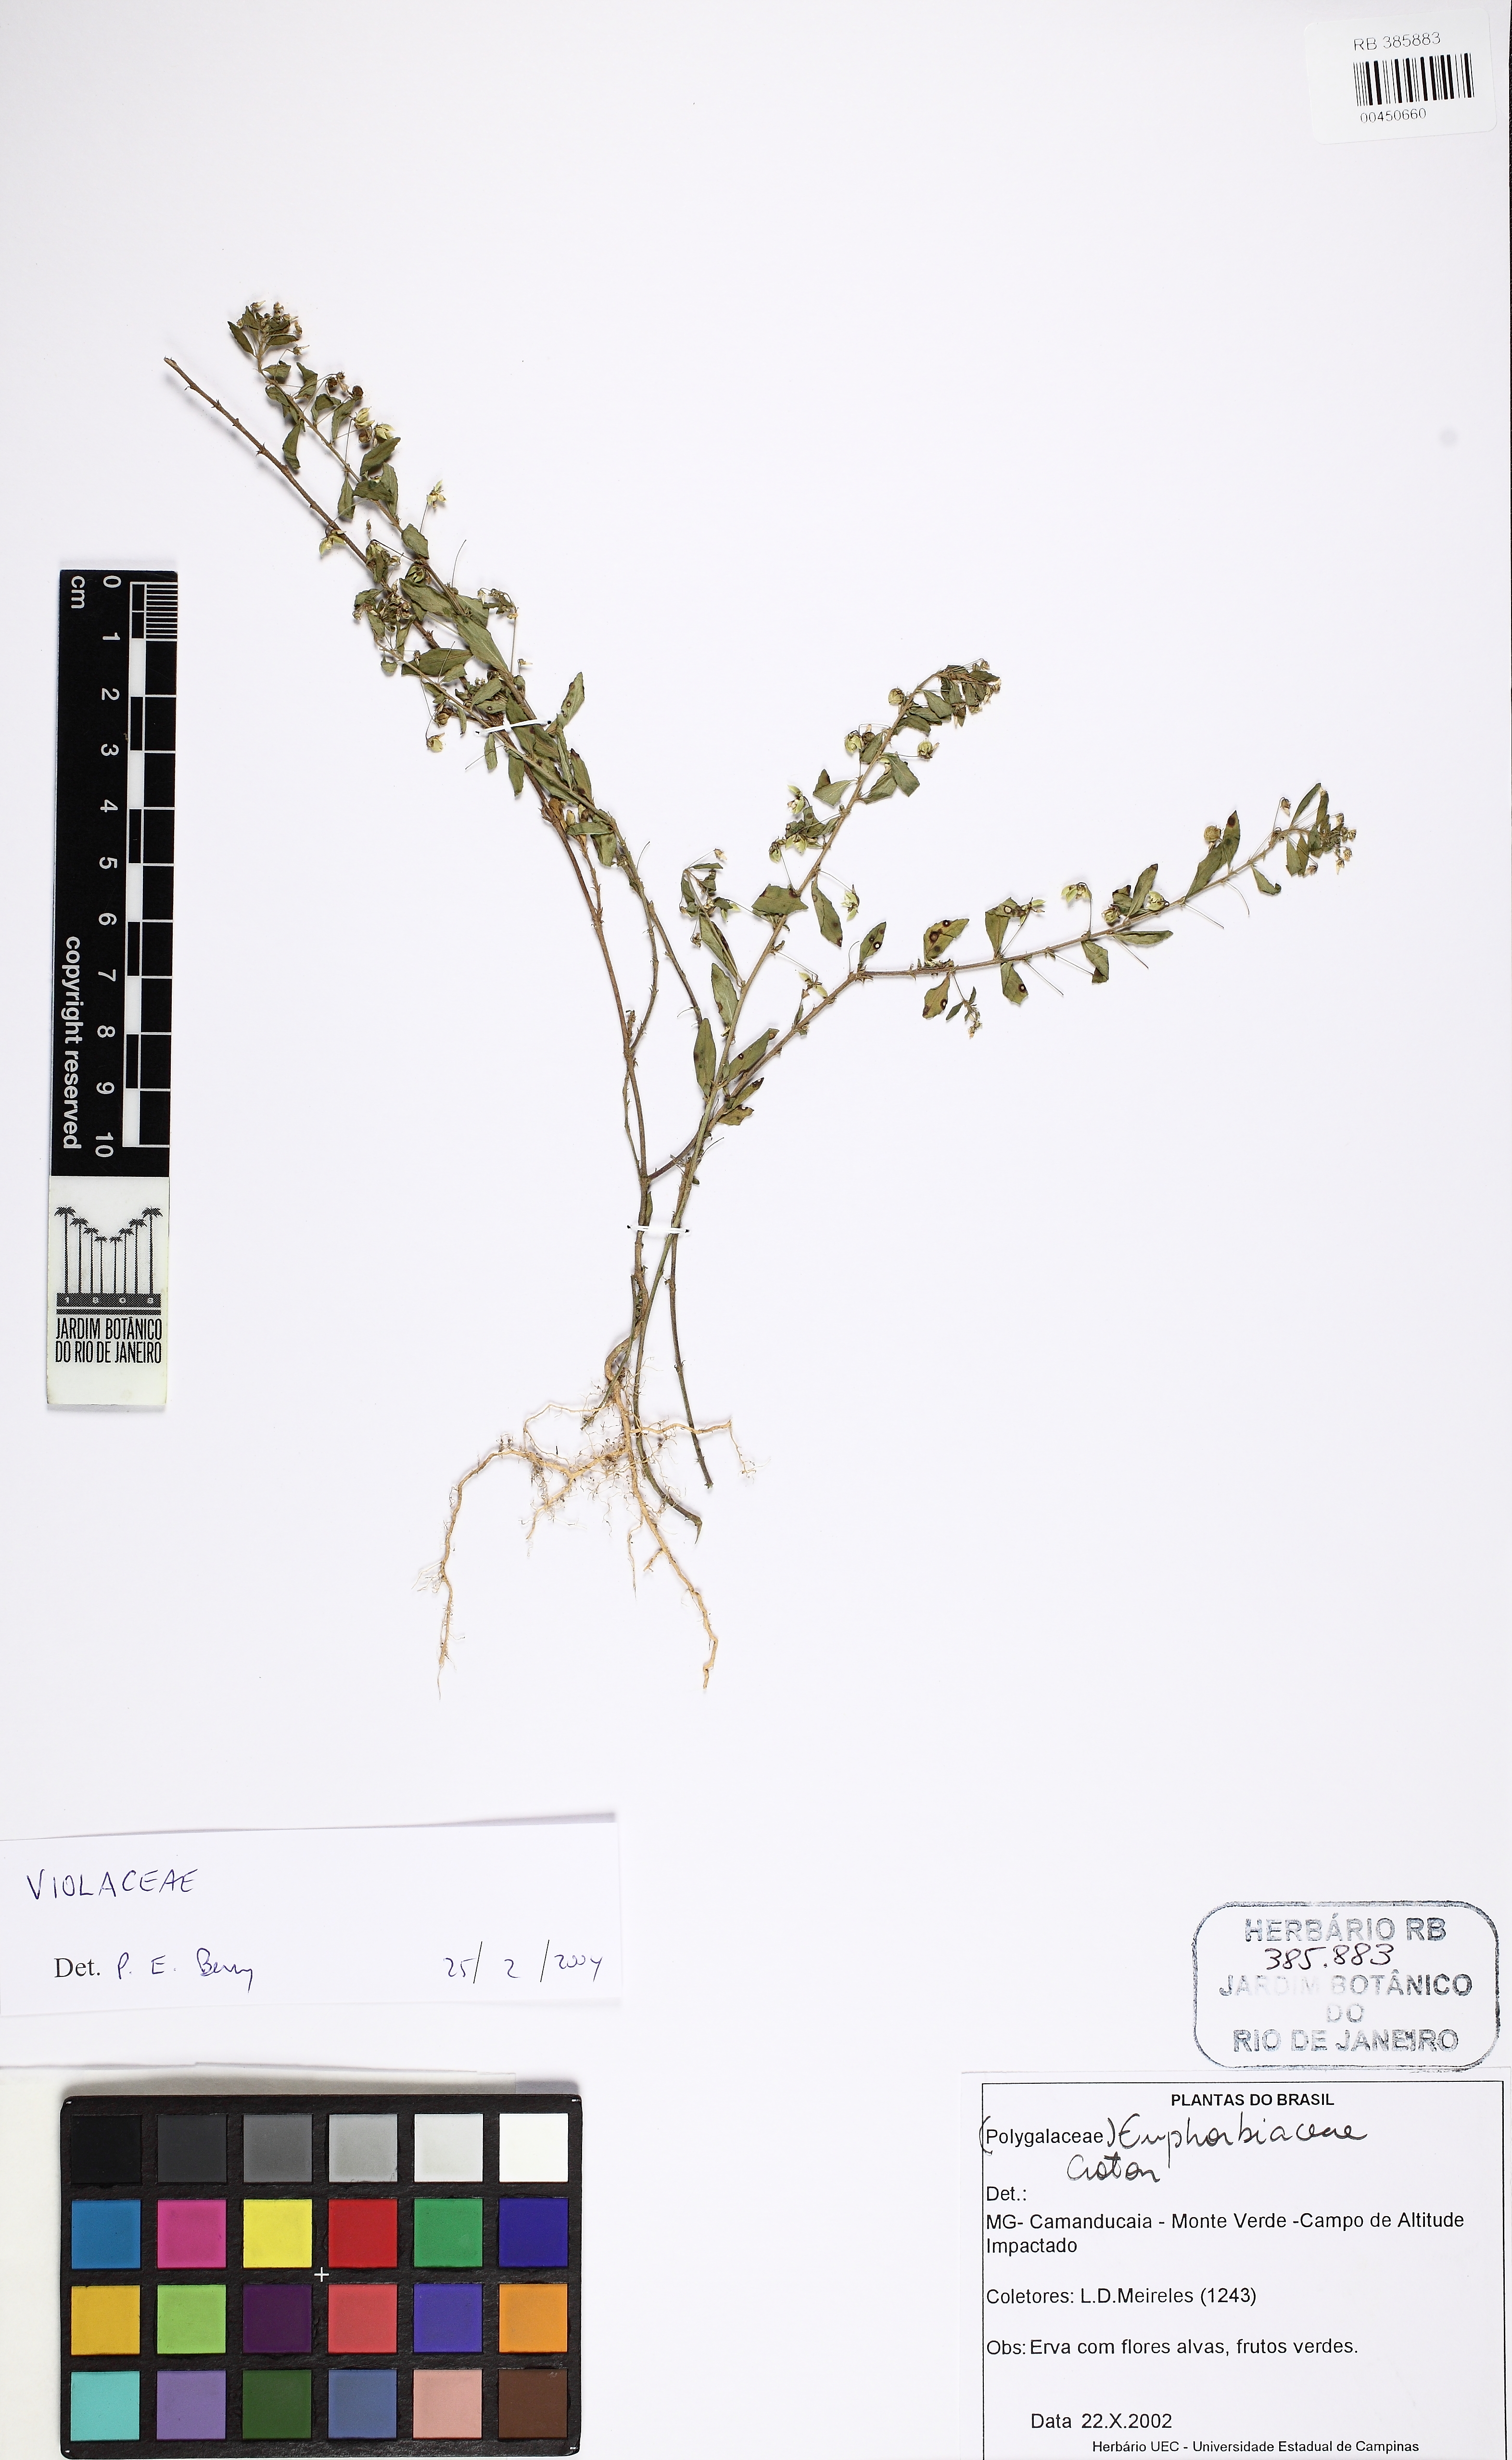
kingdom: Plantae
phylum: Tracheophyta
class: Magnoliopsida
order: Malpighiales
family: Violaceae
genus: Pombalia
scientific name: Pombalia
